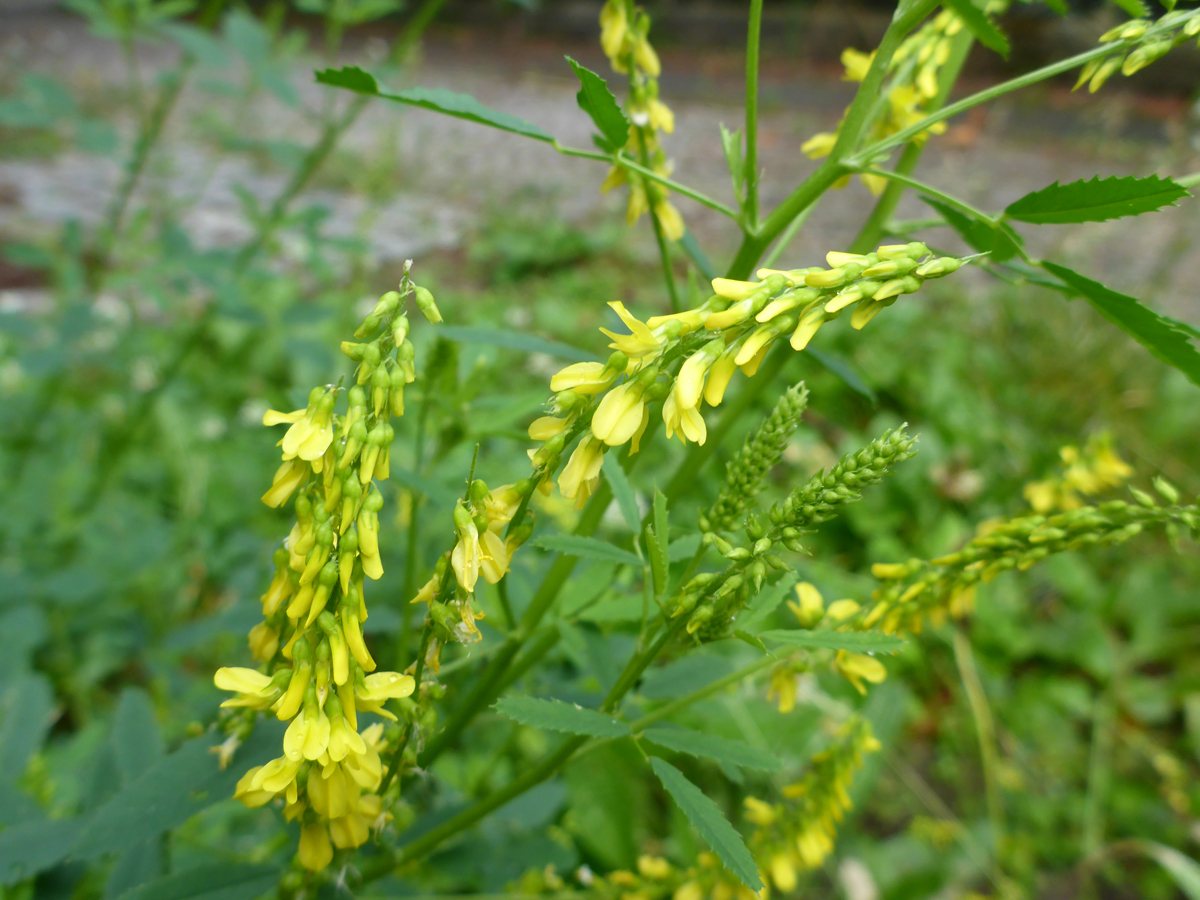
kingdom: Plantae
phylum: Tracheophyta
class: Magnoliopsida
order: Fabales
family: Fabaceae
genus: Melilotus
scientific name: Melilotus officinalis
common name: Sweetclover
